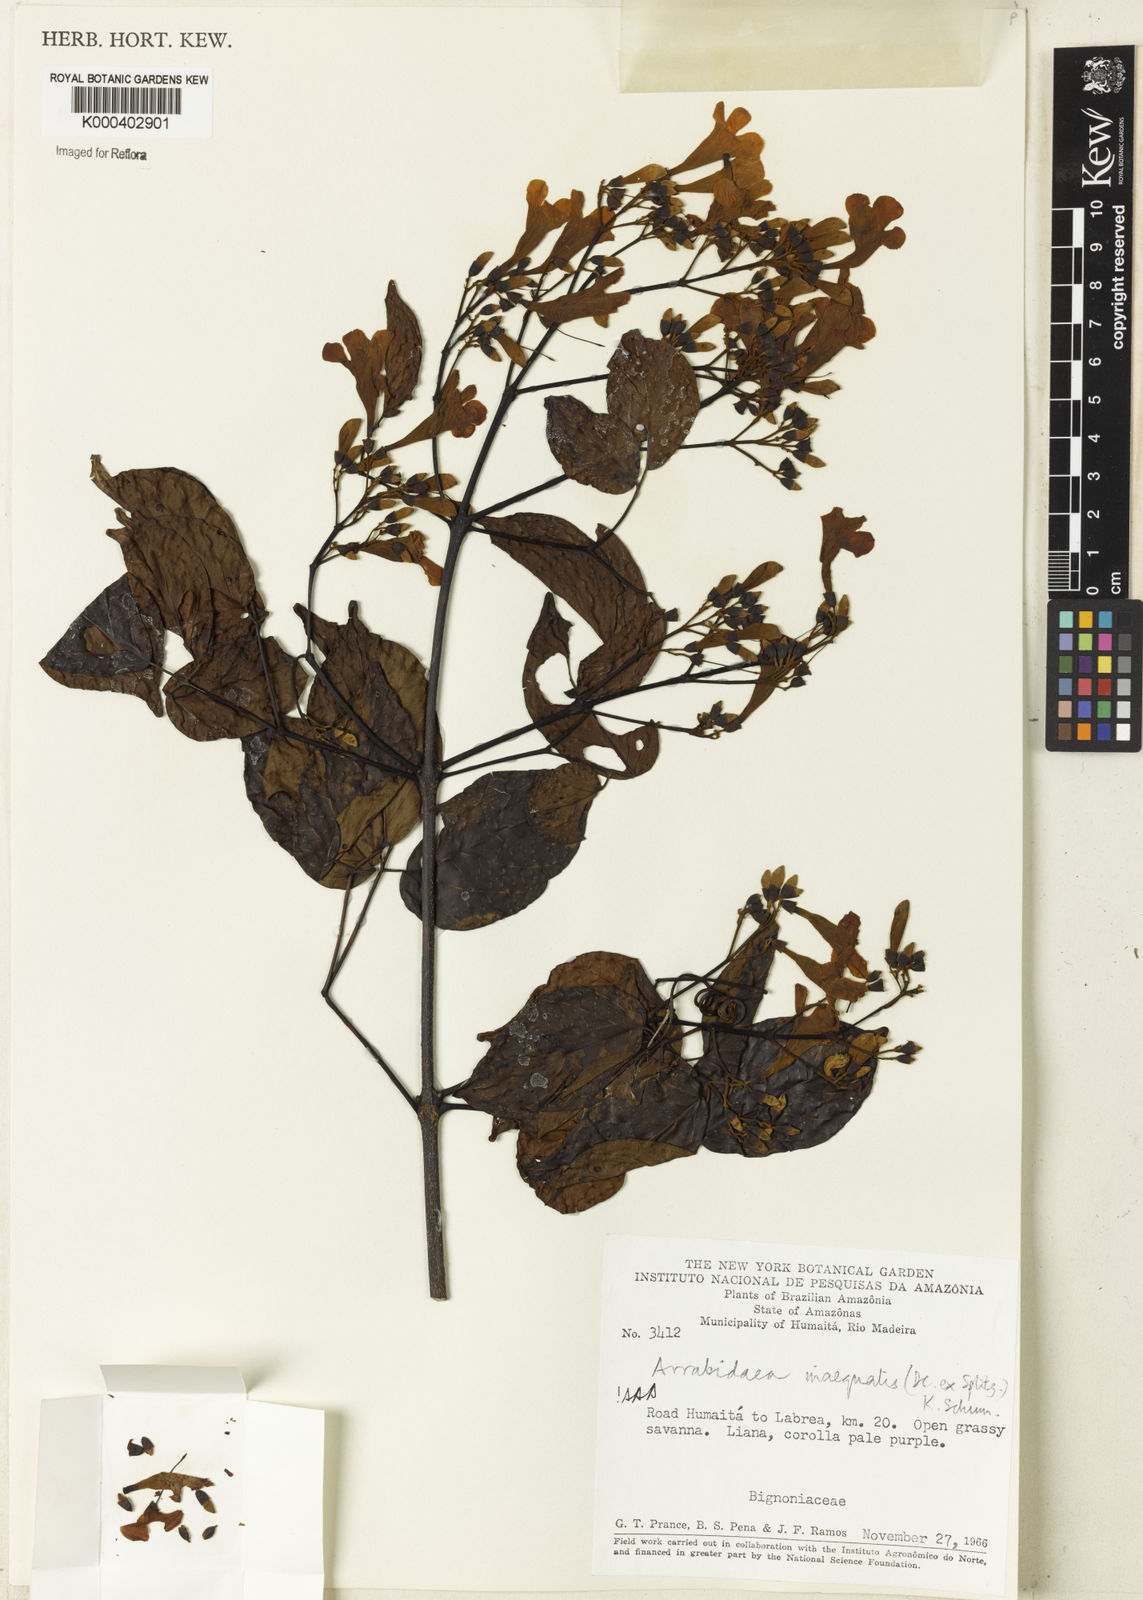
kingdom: Plantae
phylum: Tracheophyta
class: Magnoliopsida
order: Lamiales
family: Bignoniaceae
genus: Cuspidaria
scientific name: Cuspidaria inaequalis
